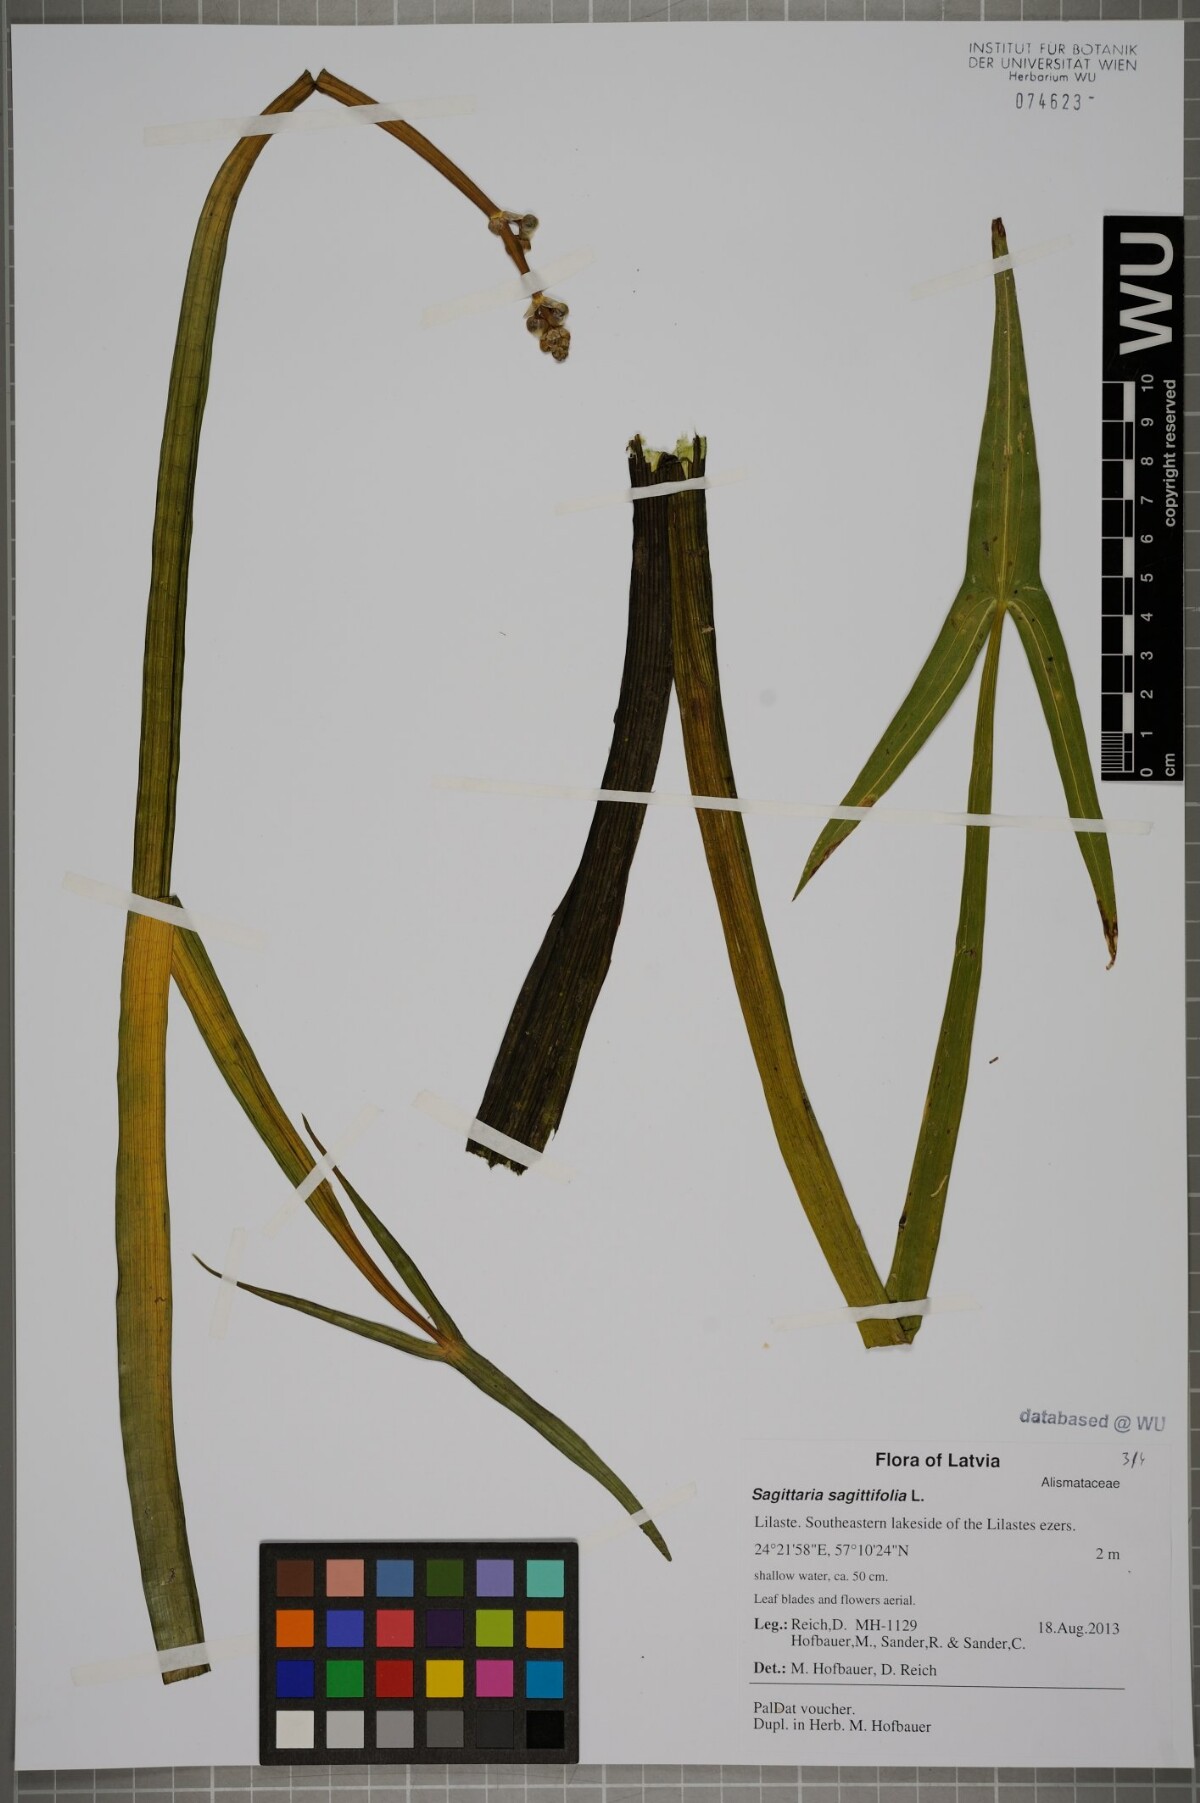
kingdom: Plantae
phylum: Tracheophyta
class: Liliopsida
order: Alismatales
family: Alismataceae
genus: Sagittaria
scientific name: Sagittaria sagittifolia
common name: Arrowhead
